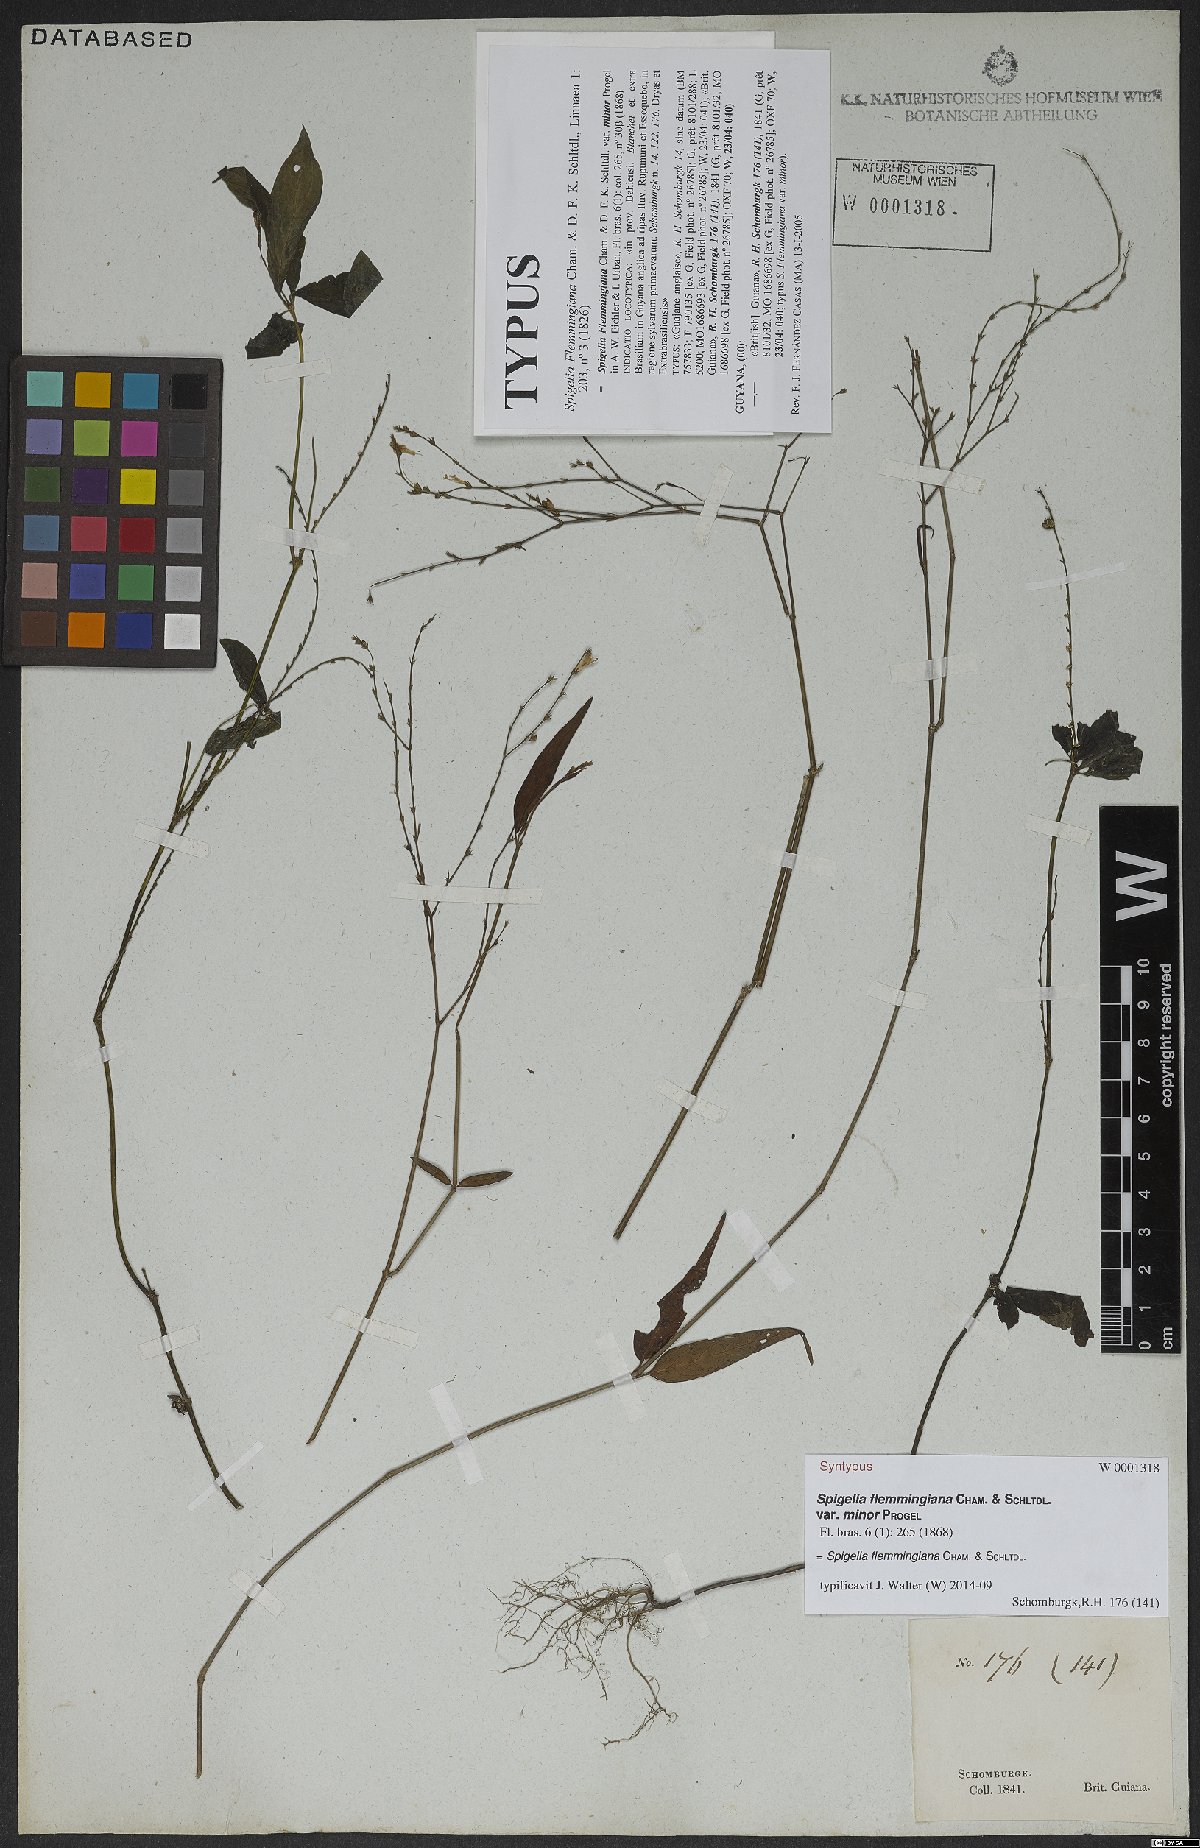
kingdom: Plantae
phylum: Tracheophyta
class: Magnoliopsida
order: Gentianales
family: Loganiaceae
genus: Spigelia
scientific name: Spigelia flemmingiana
